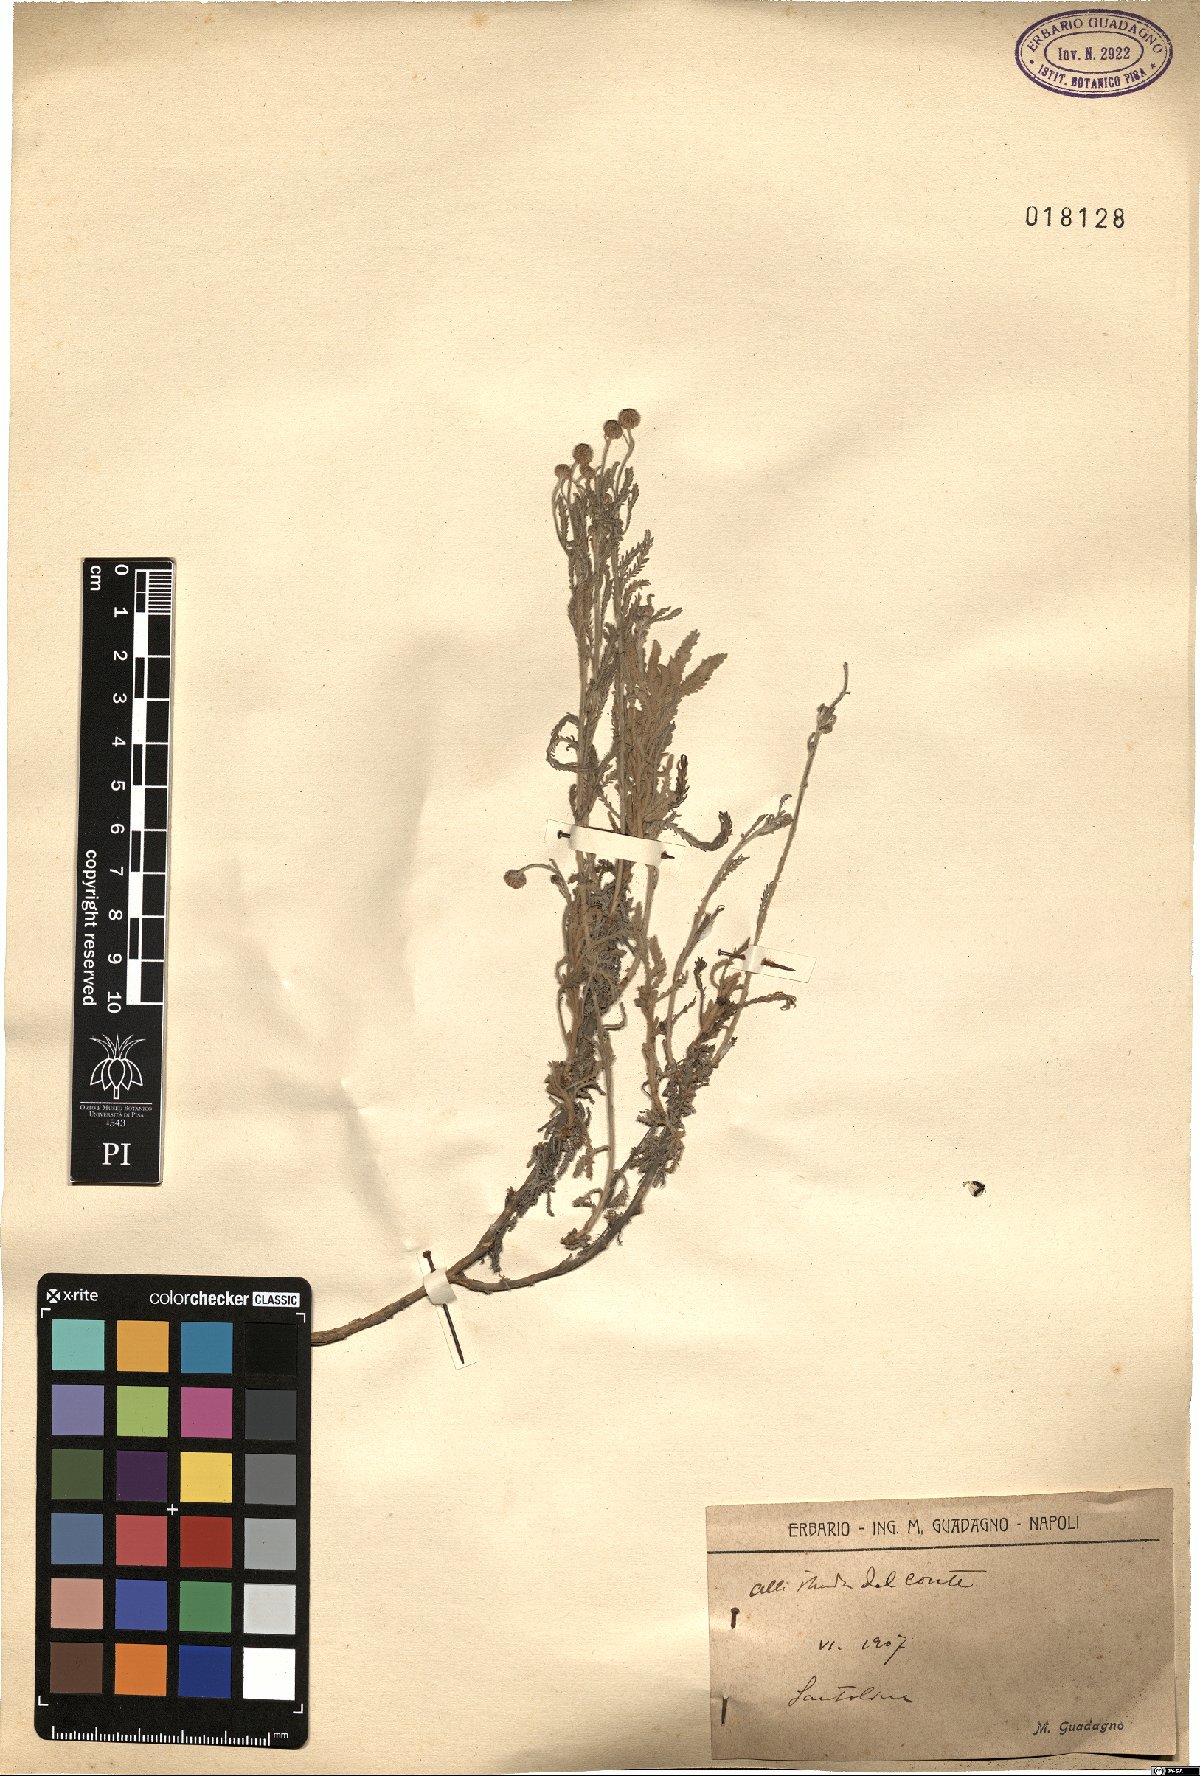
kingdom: Plantae
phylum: Tracheophyta
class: Magnoliopsida
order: Asterales
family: Asteraceae
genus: Santolina
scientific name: Santolina
